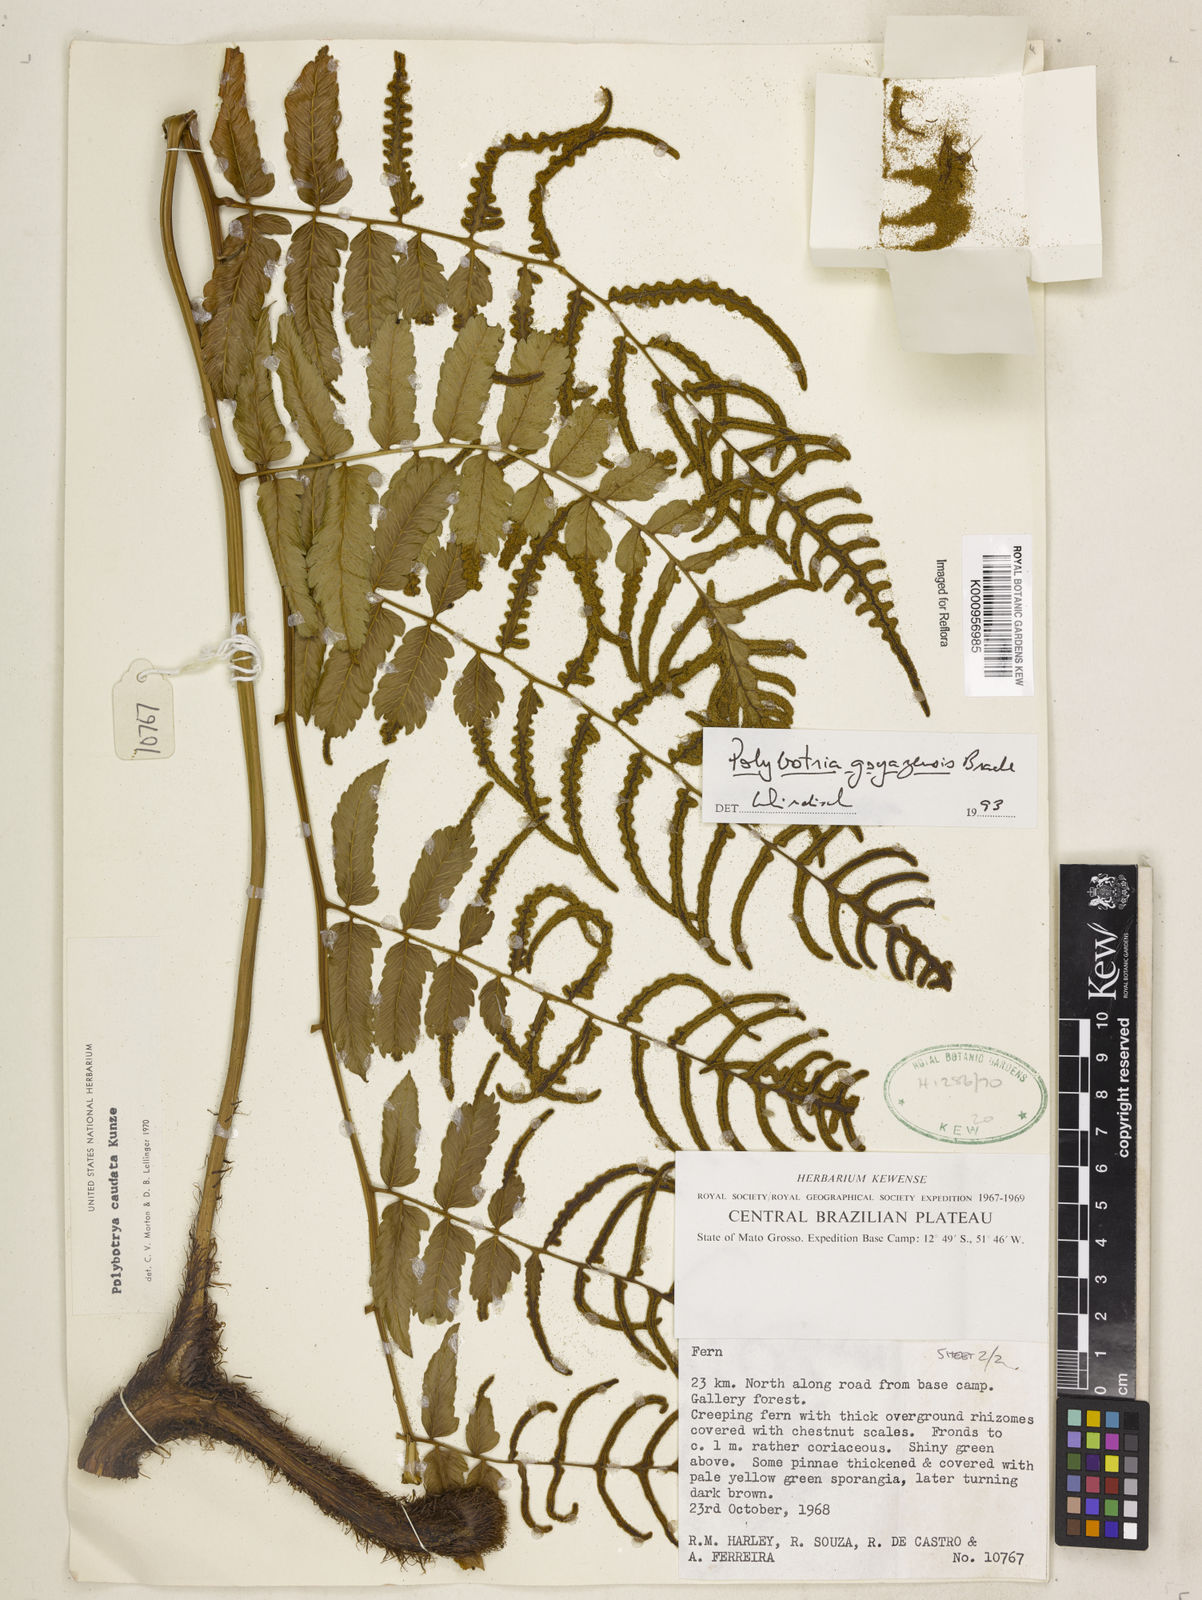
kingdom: Plantae
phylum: Tracheophyta
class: Polypodiopsida
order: Polypodiales
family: Dryopteridaceae
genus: Polybotrya
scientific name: Polybotrya goyazensis
